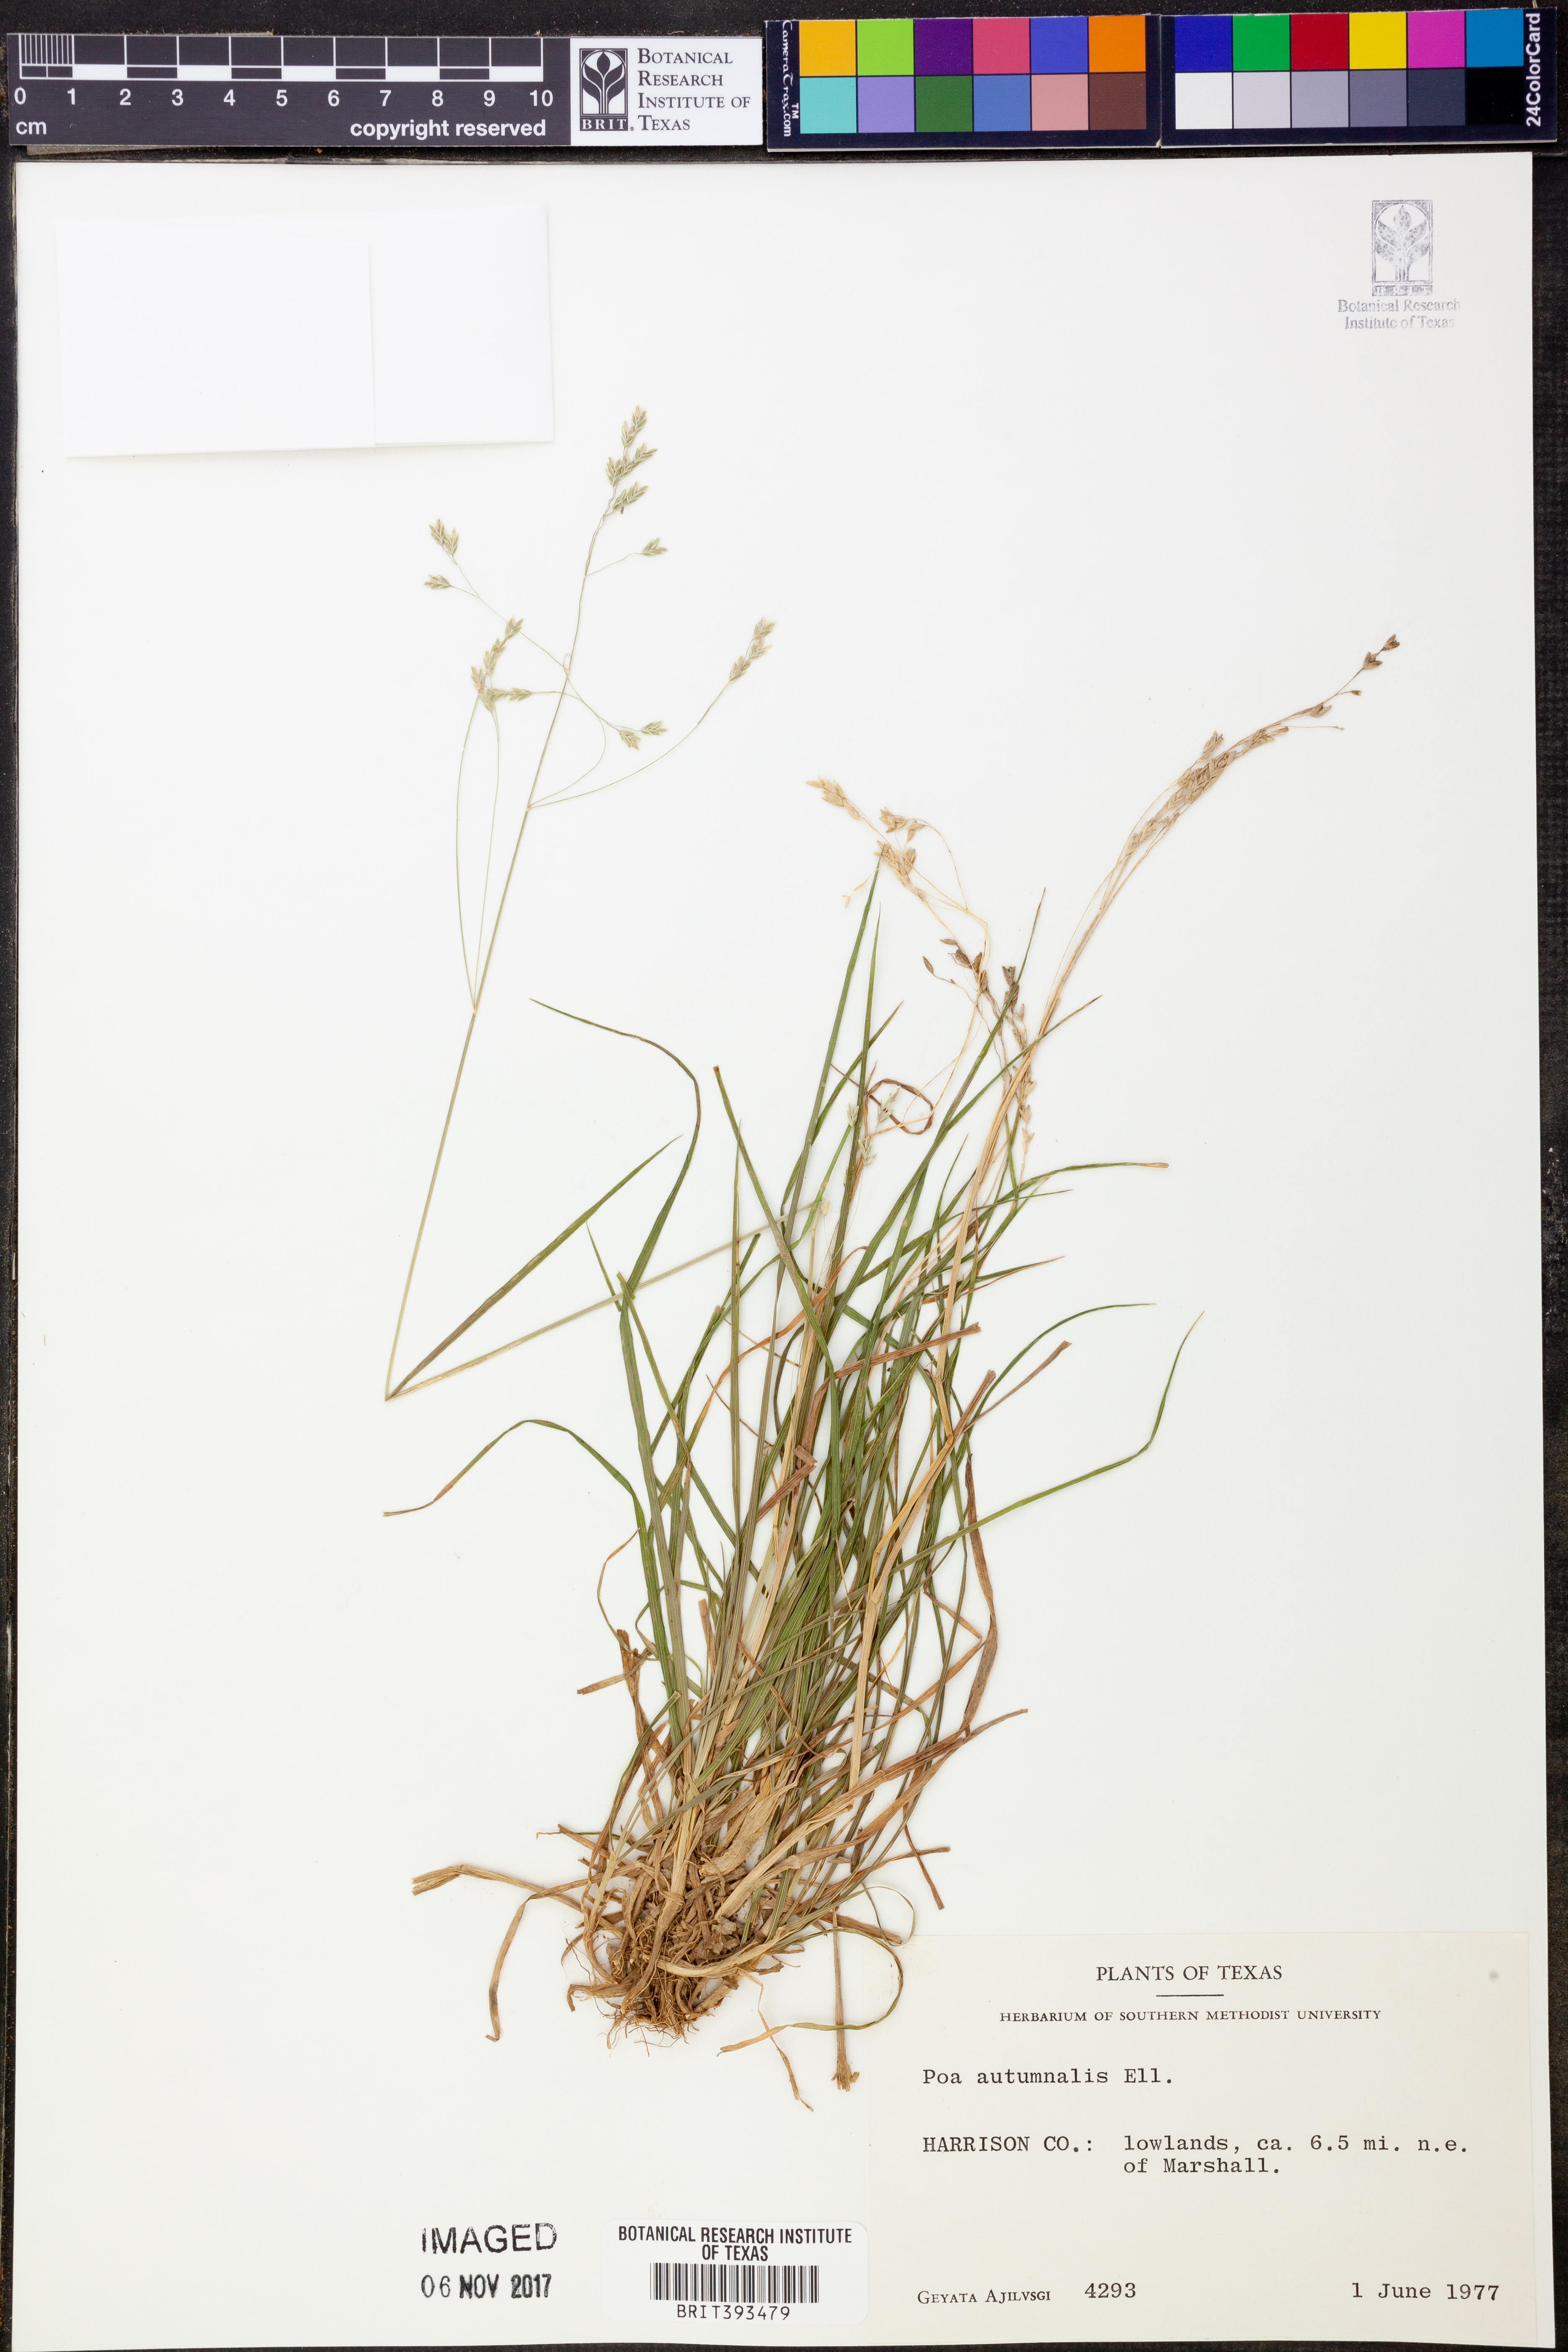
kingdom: Plantae
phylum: Tracheophyta
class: Liliopsida
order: Poales
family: Poaceae
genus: Poa
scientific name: Poa autumnalis
